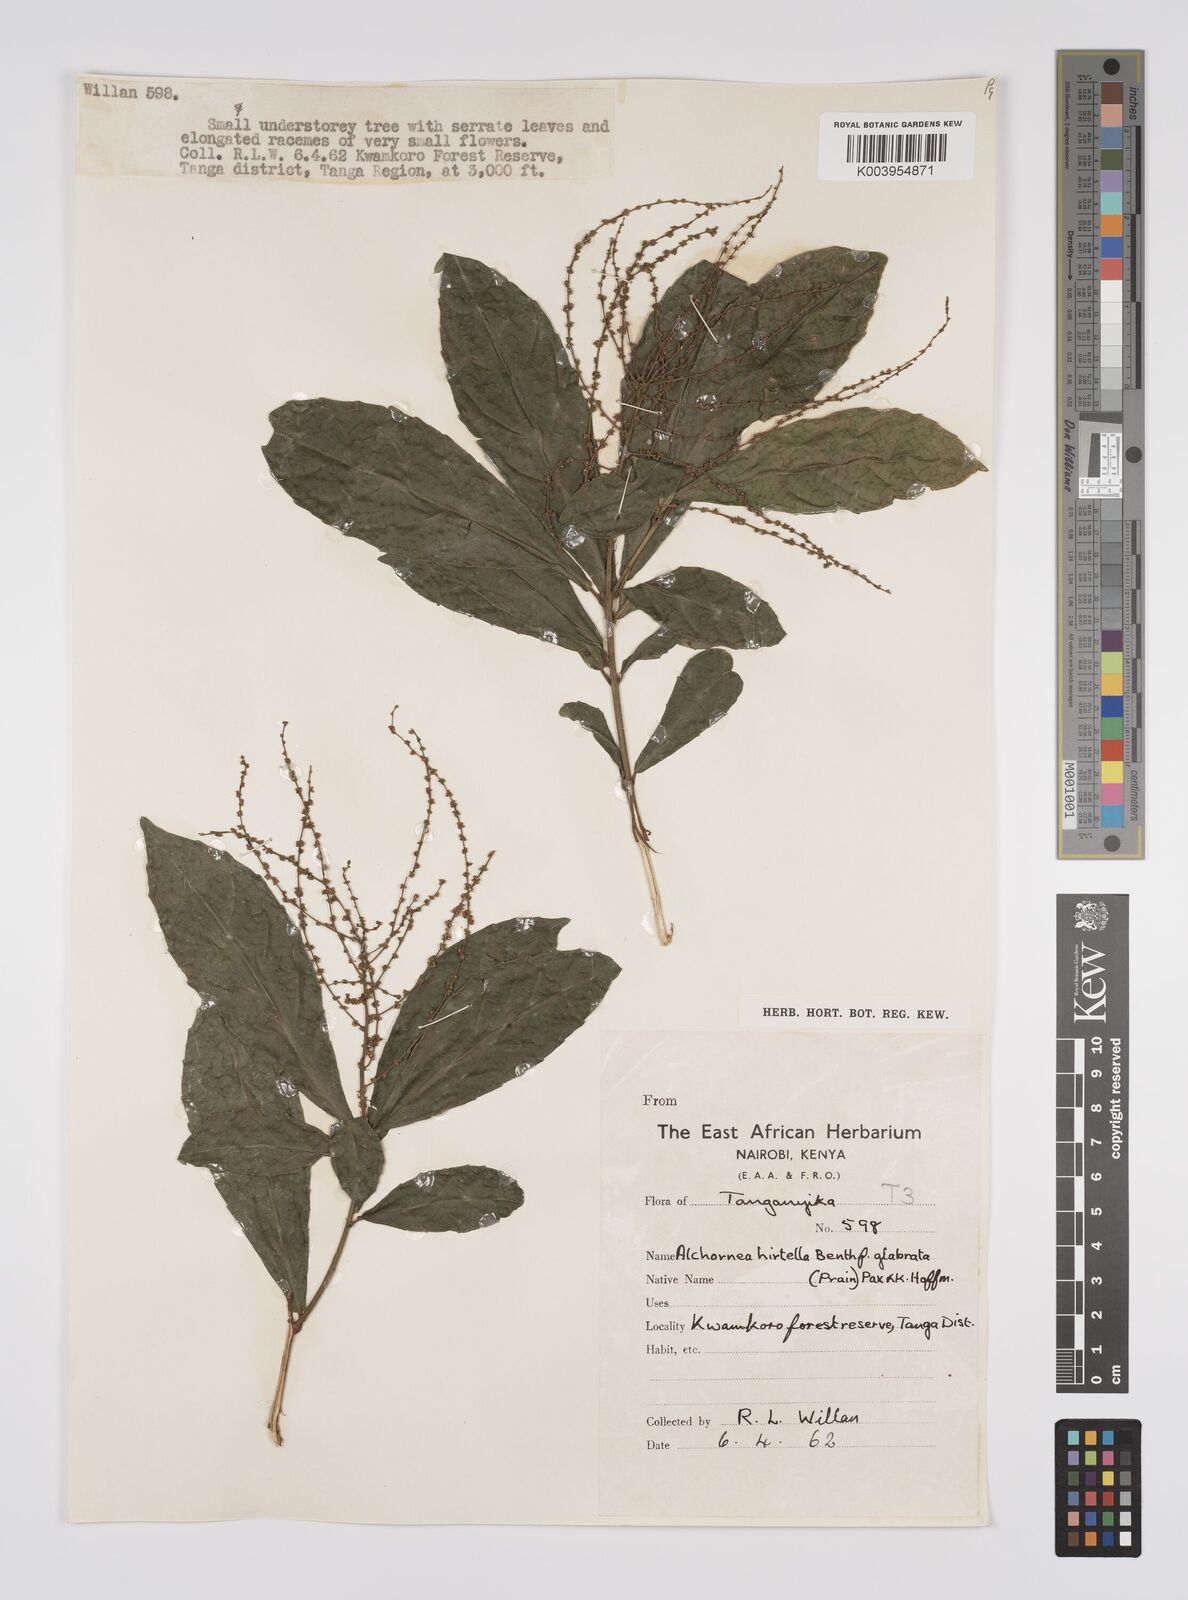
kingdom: Plantae
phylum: Tracheophyta
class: Magnoliopsida
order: Malpighiales
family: Euphorbiaceae
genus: Alchornea
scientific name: Alchornea hirtella
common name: Forest bead-string
